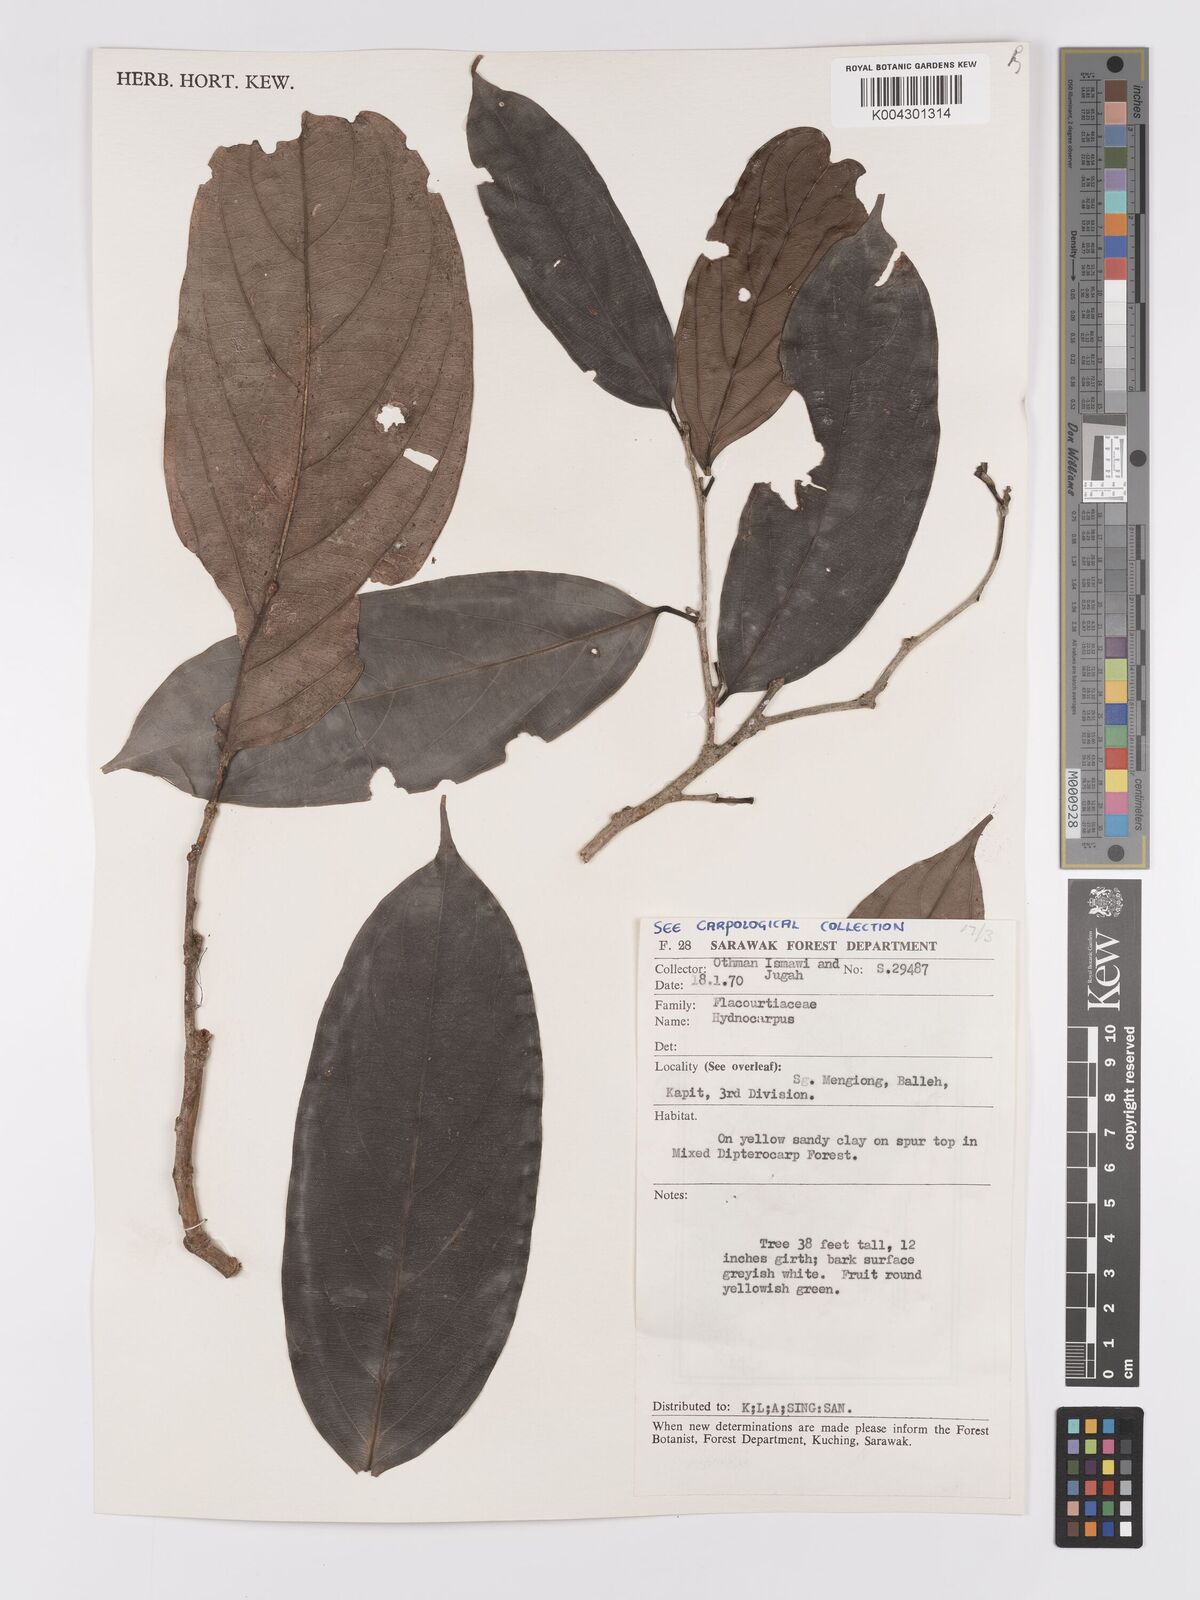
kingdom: Plantae
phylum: Tracheophyta
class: Magnoliopsida
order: Malpighiales
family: Achariaceae
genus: Hydnocarpus
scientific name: Hydnocarpus
